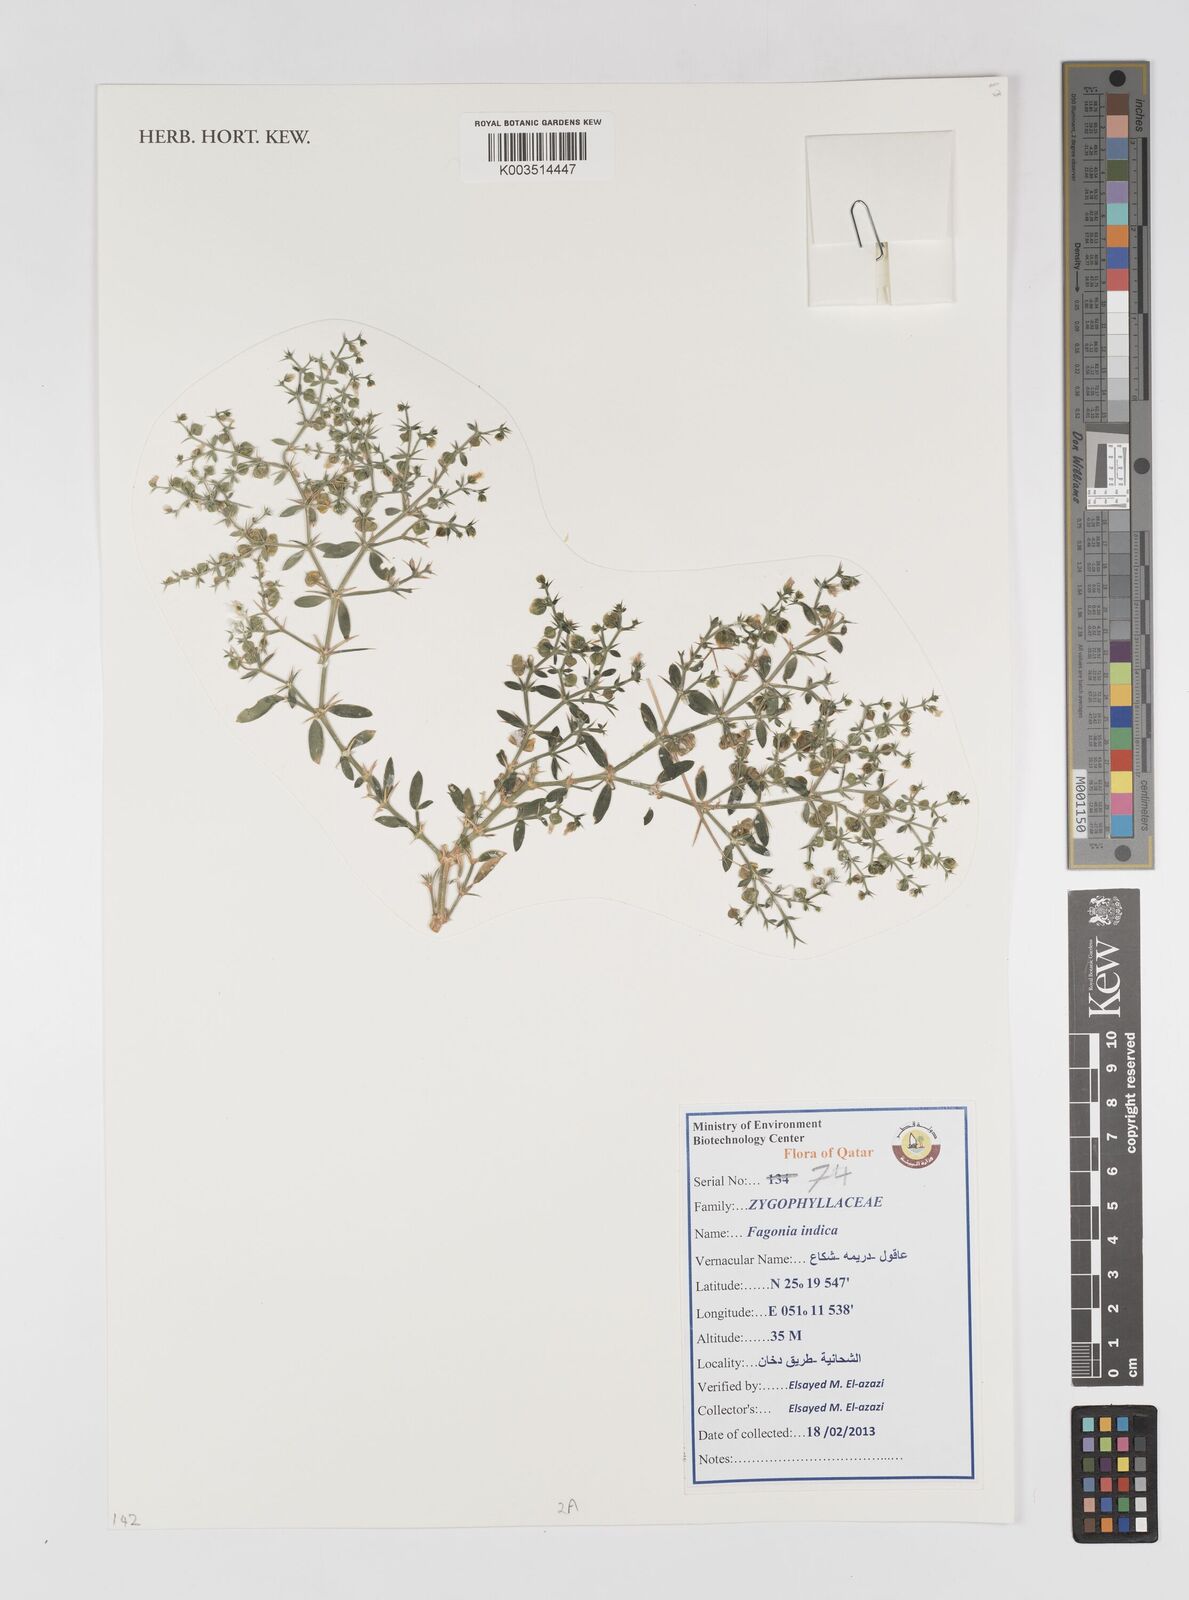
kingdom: Plantae
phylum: Tracheophyta
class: Magnoliopsida
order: Zygophyllales
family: Zygophyllaceae
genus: Fagonia
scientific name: Fagonia indica
